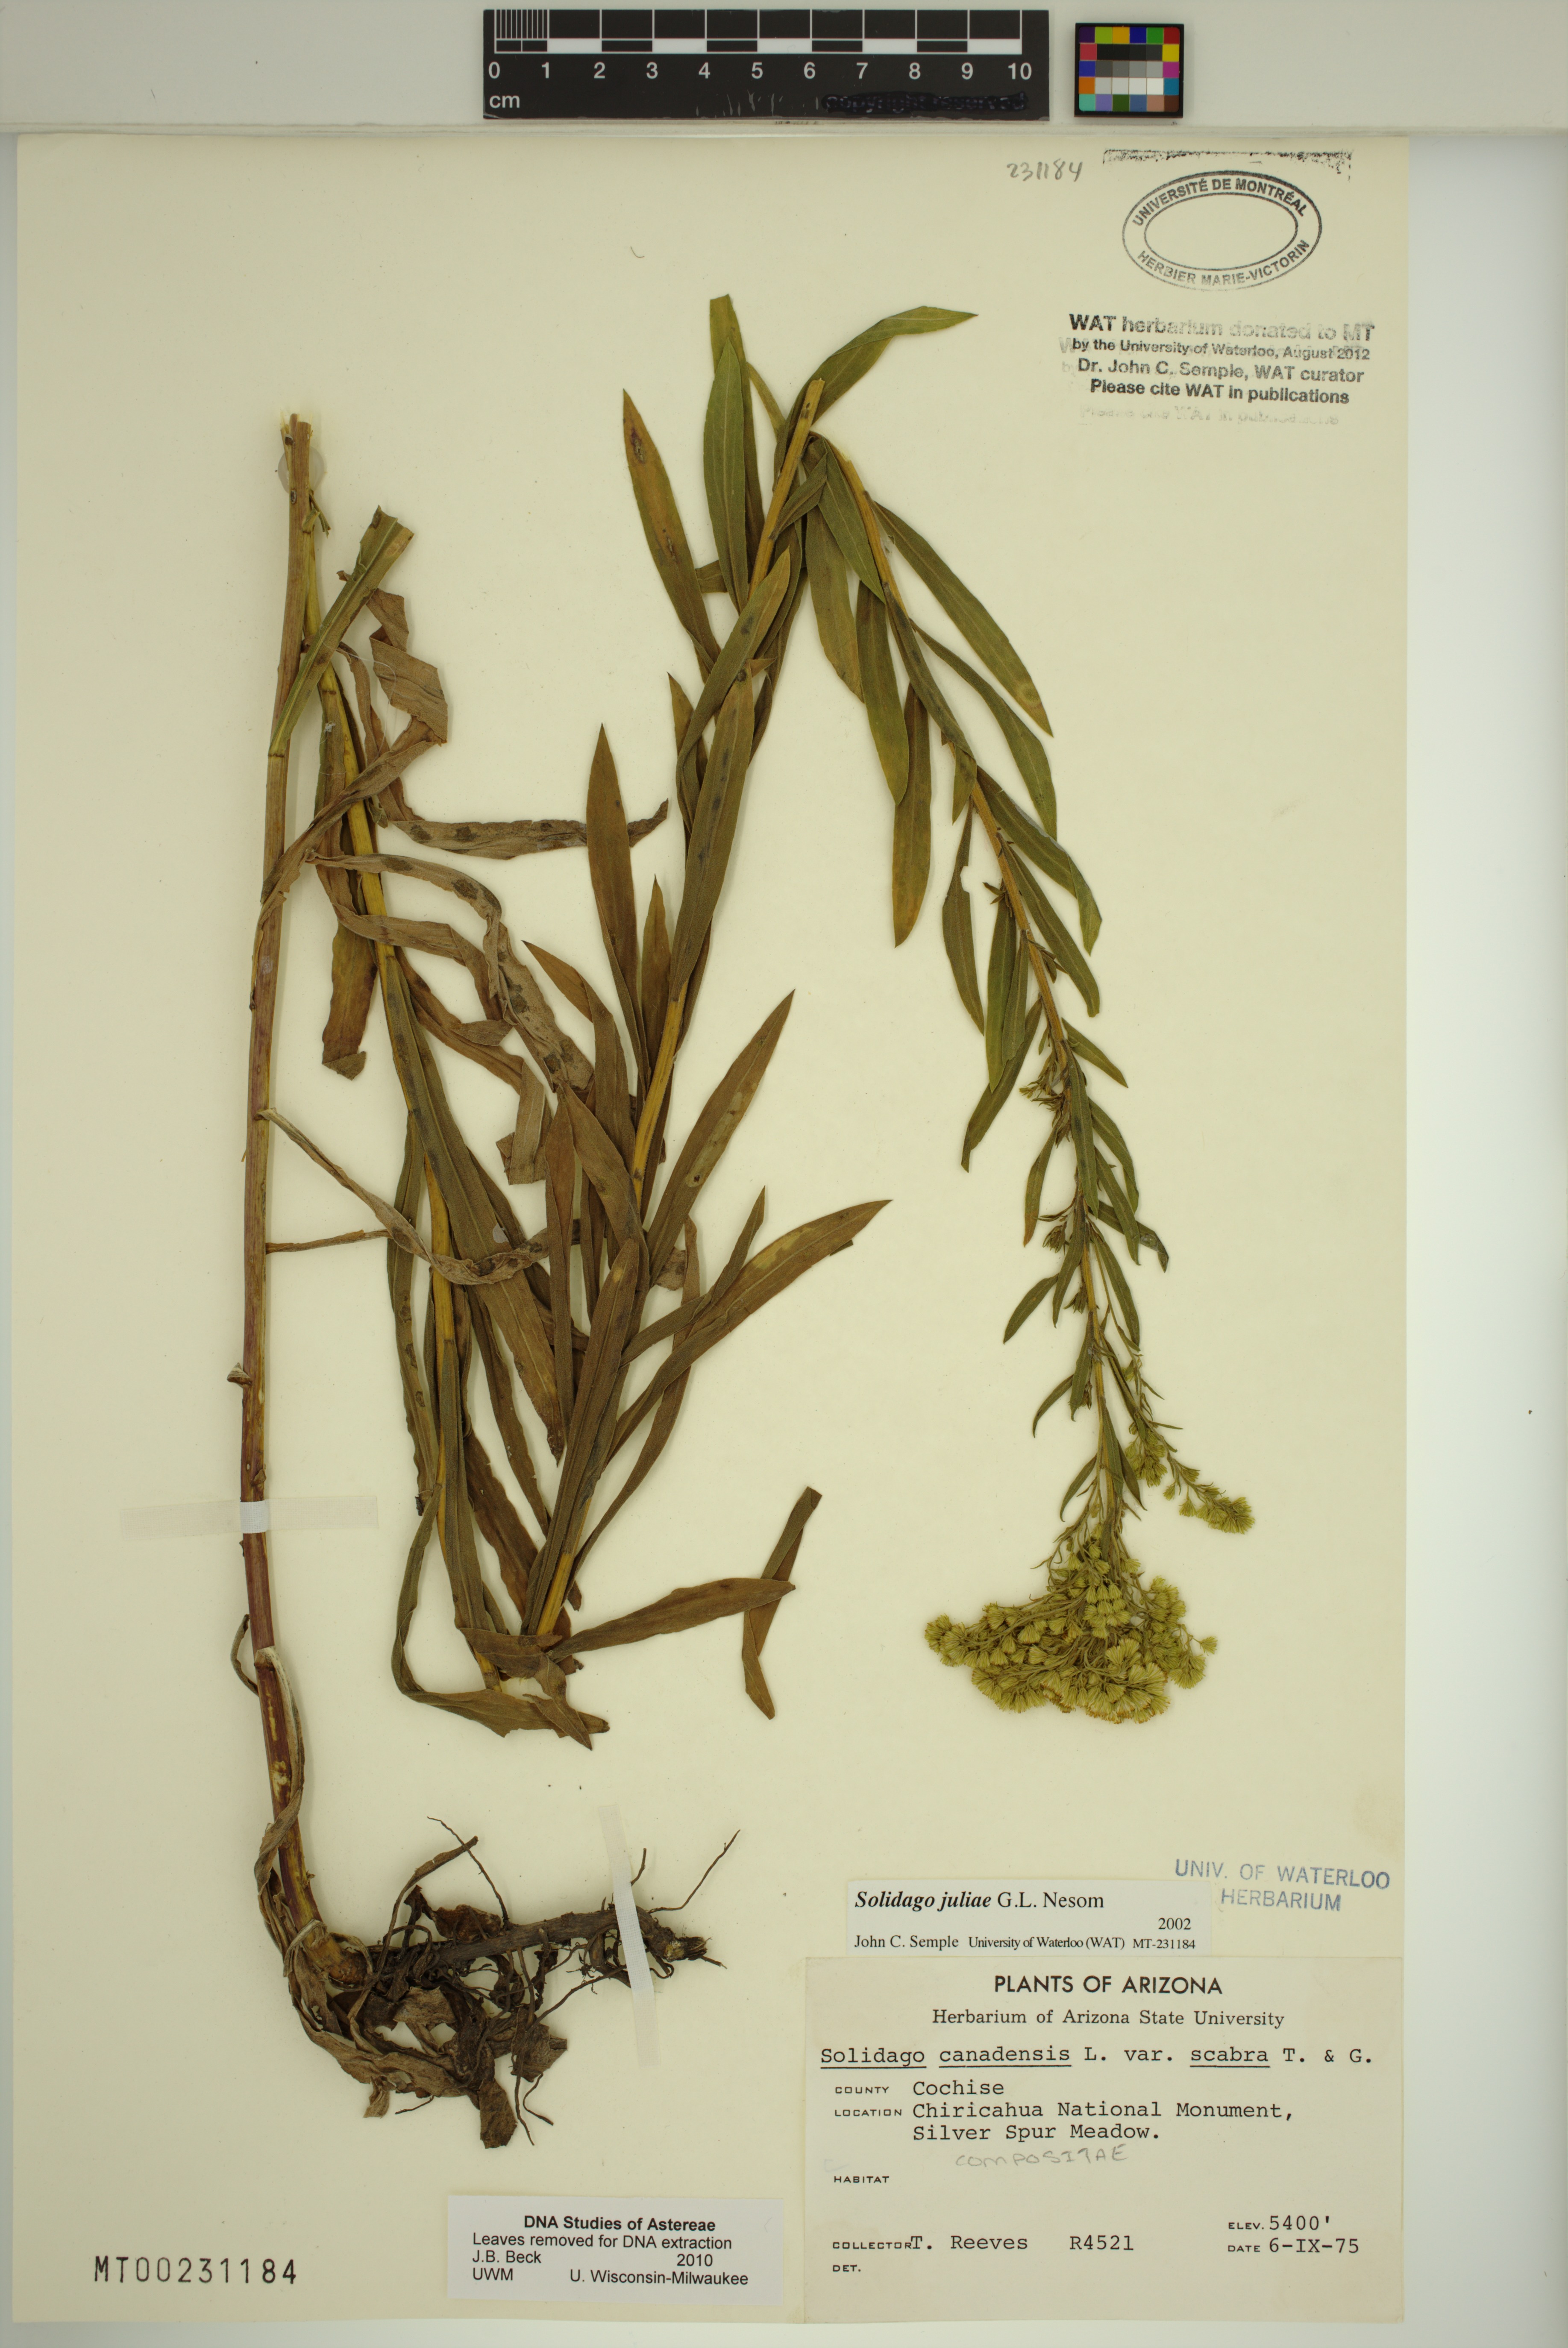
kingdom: Plantae
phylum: Tracheophyta
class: Magnoliopsida
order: Asterales
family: Asteraceae
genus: Solidago
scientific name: Solidago juliae
